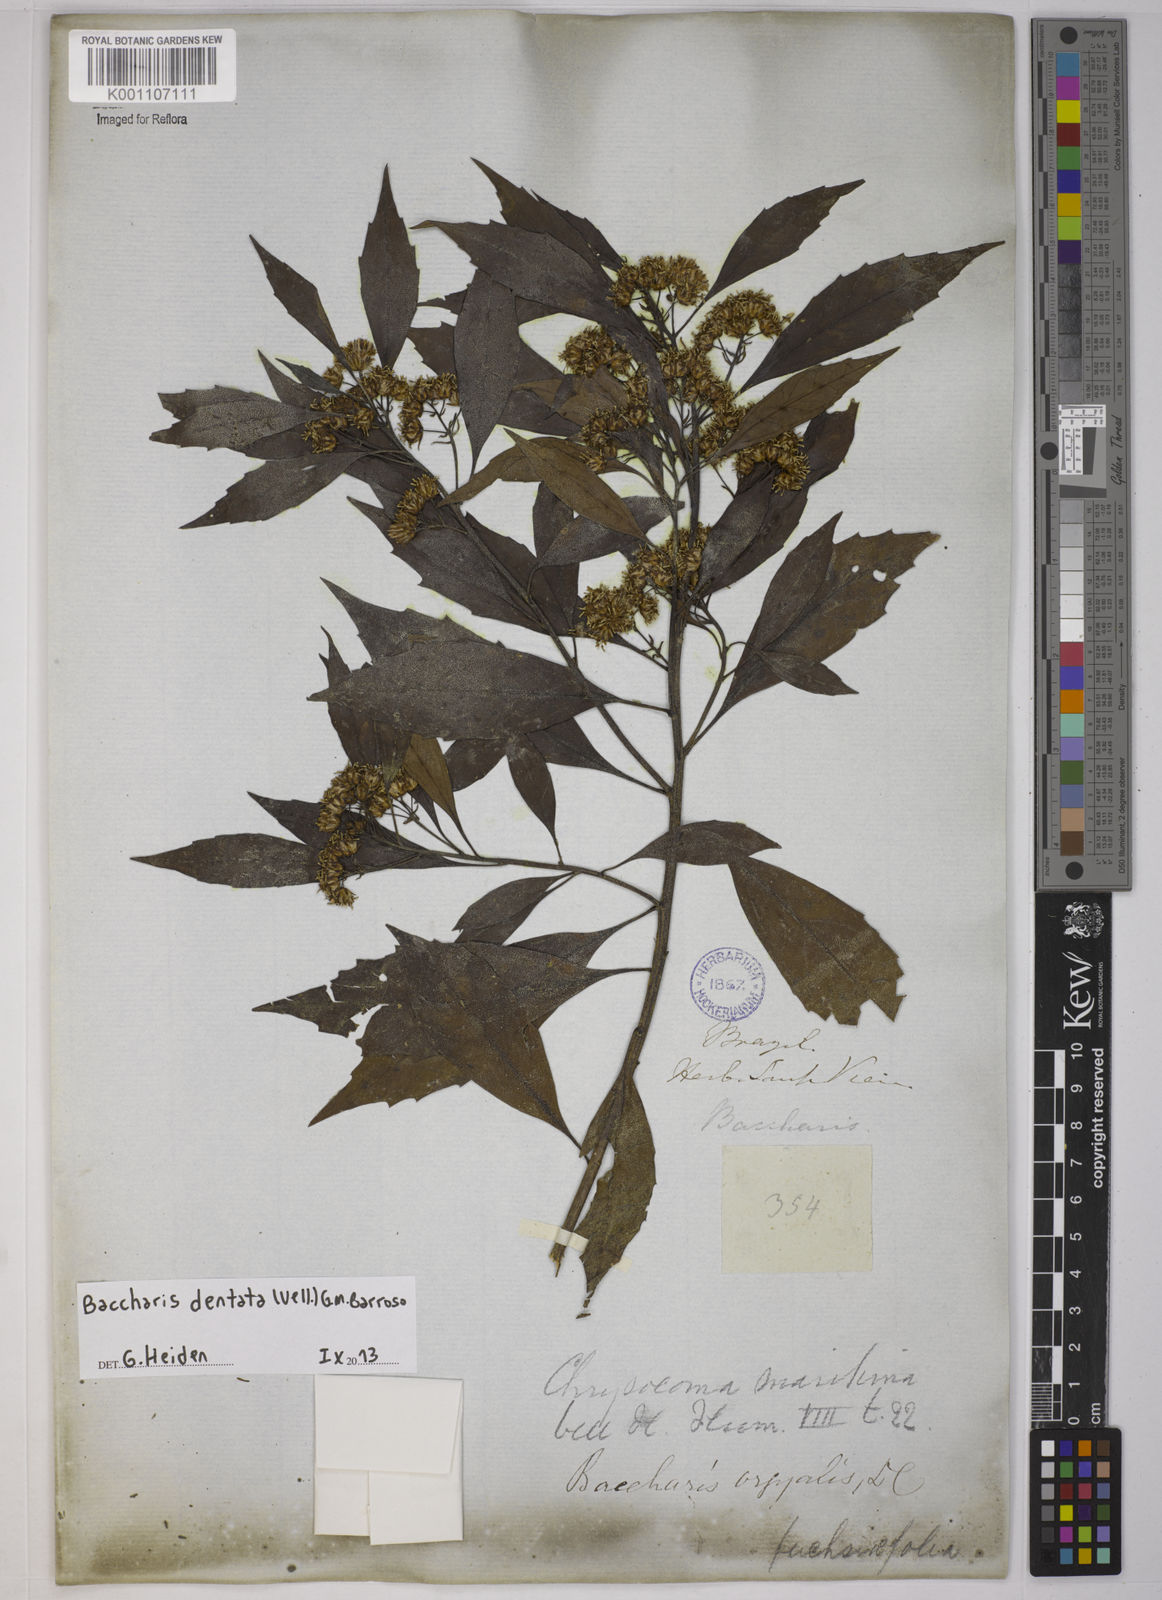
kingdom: Plantae
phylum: Tracheophyta
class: Magnoliopsida
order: Asterales
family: Asteraceae
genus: Baccharis
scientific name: Baccharis dentata
